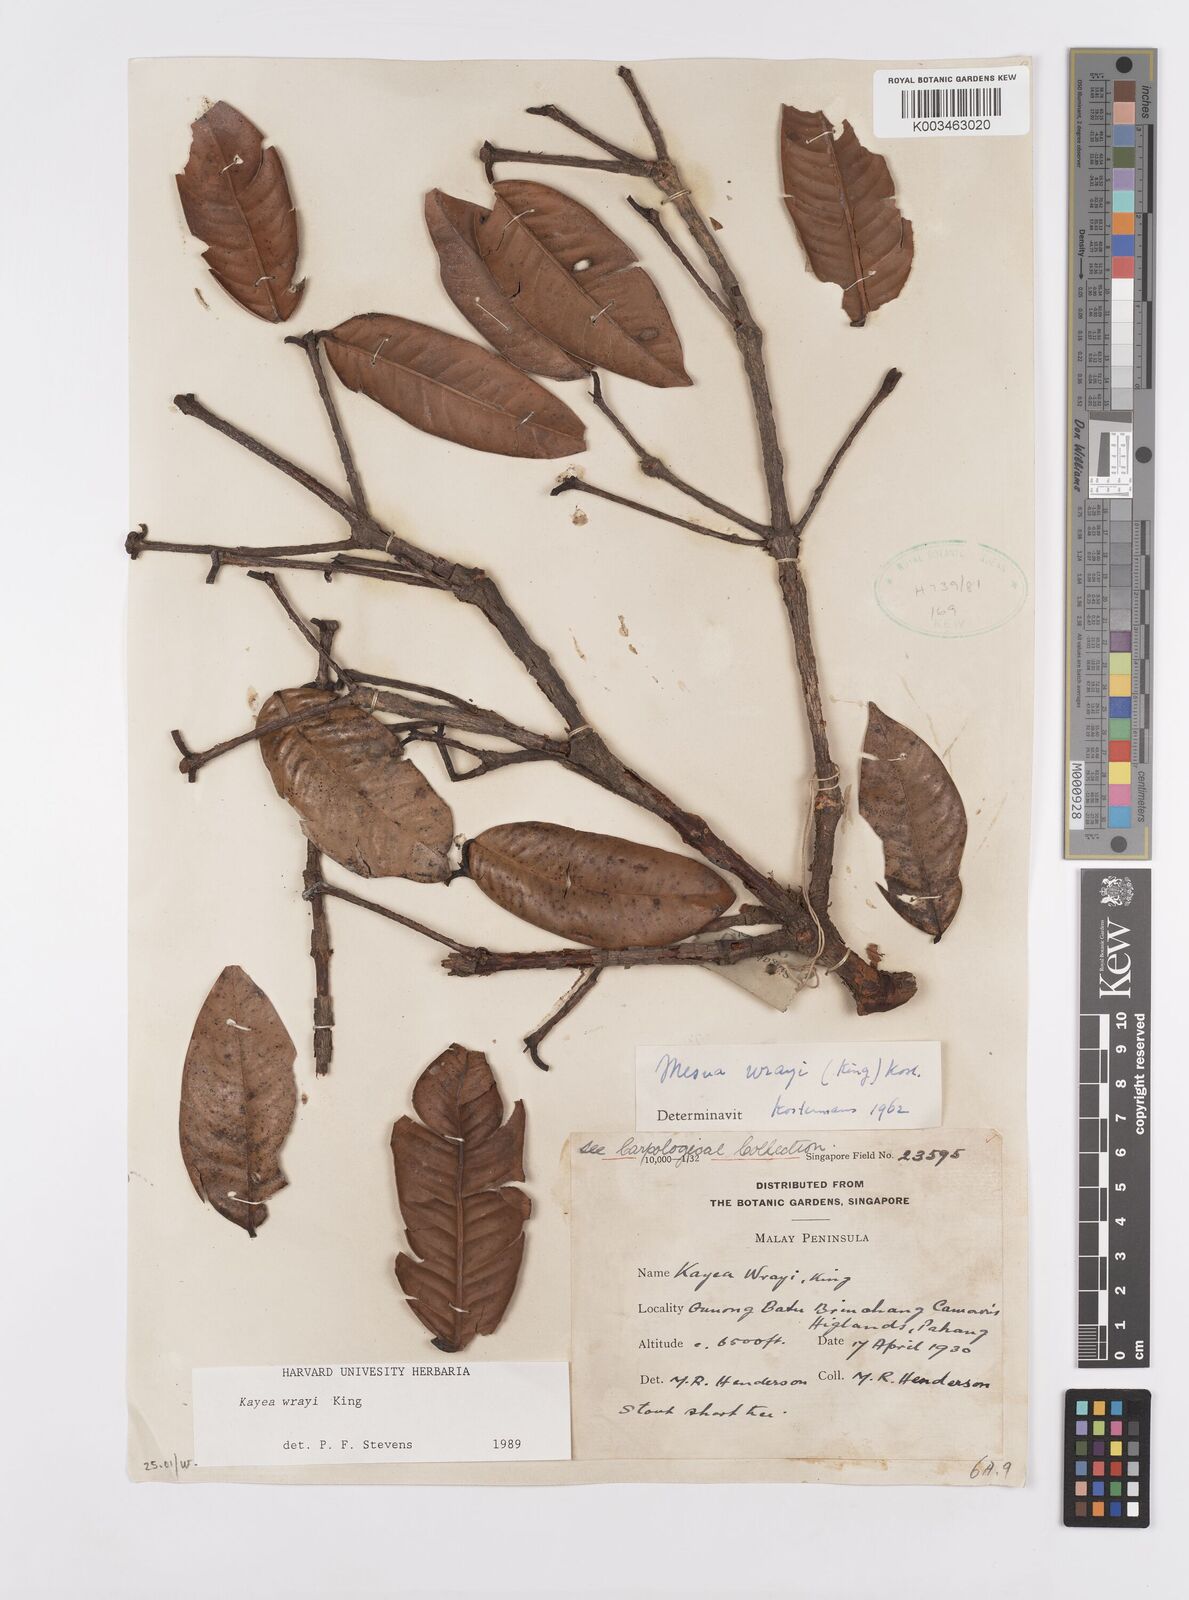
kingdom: Plantae
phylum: Tracheophyta
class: Magnoliopsida
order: Malpighiales
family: Calophyllaceae
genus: Kayea
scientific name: Kayea wrayi
